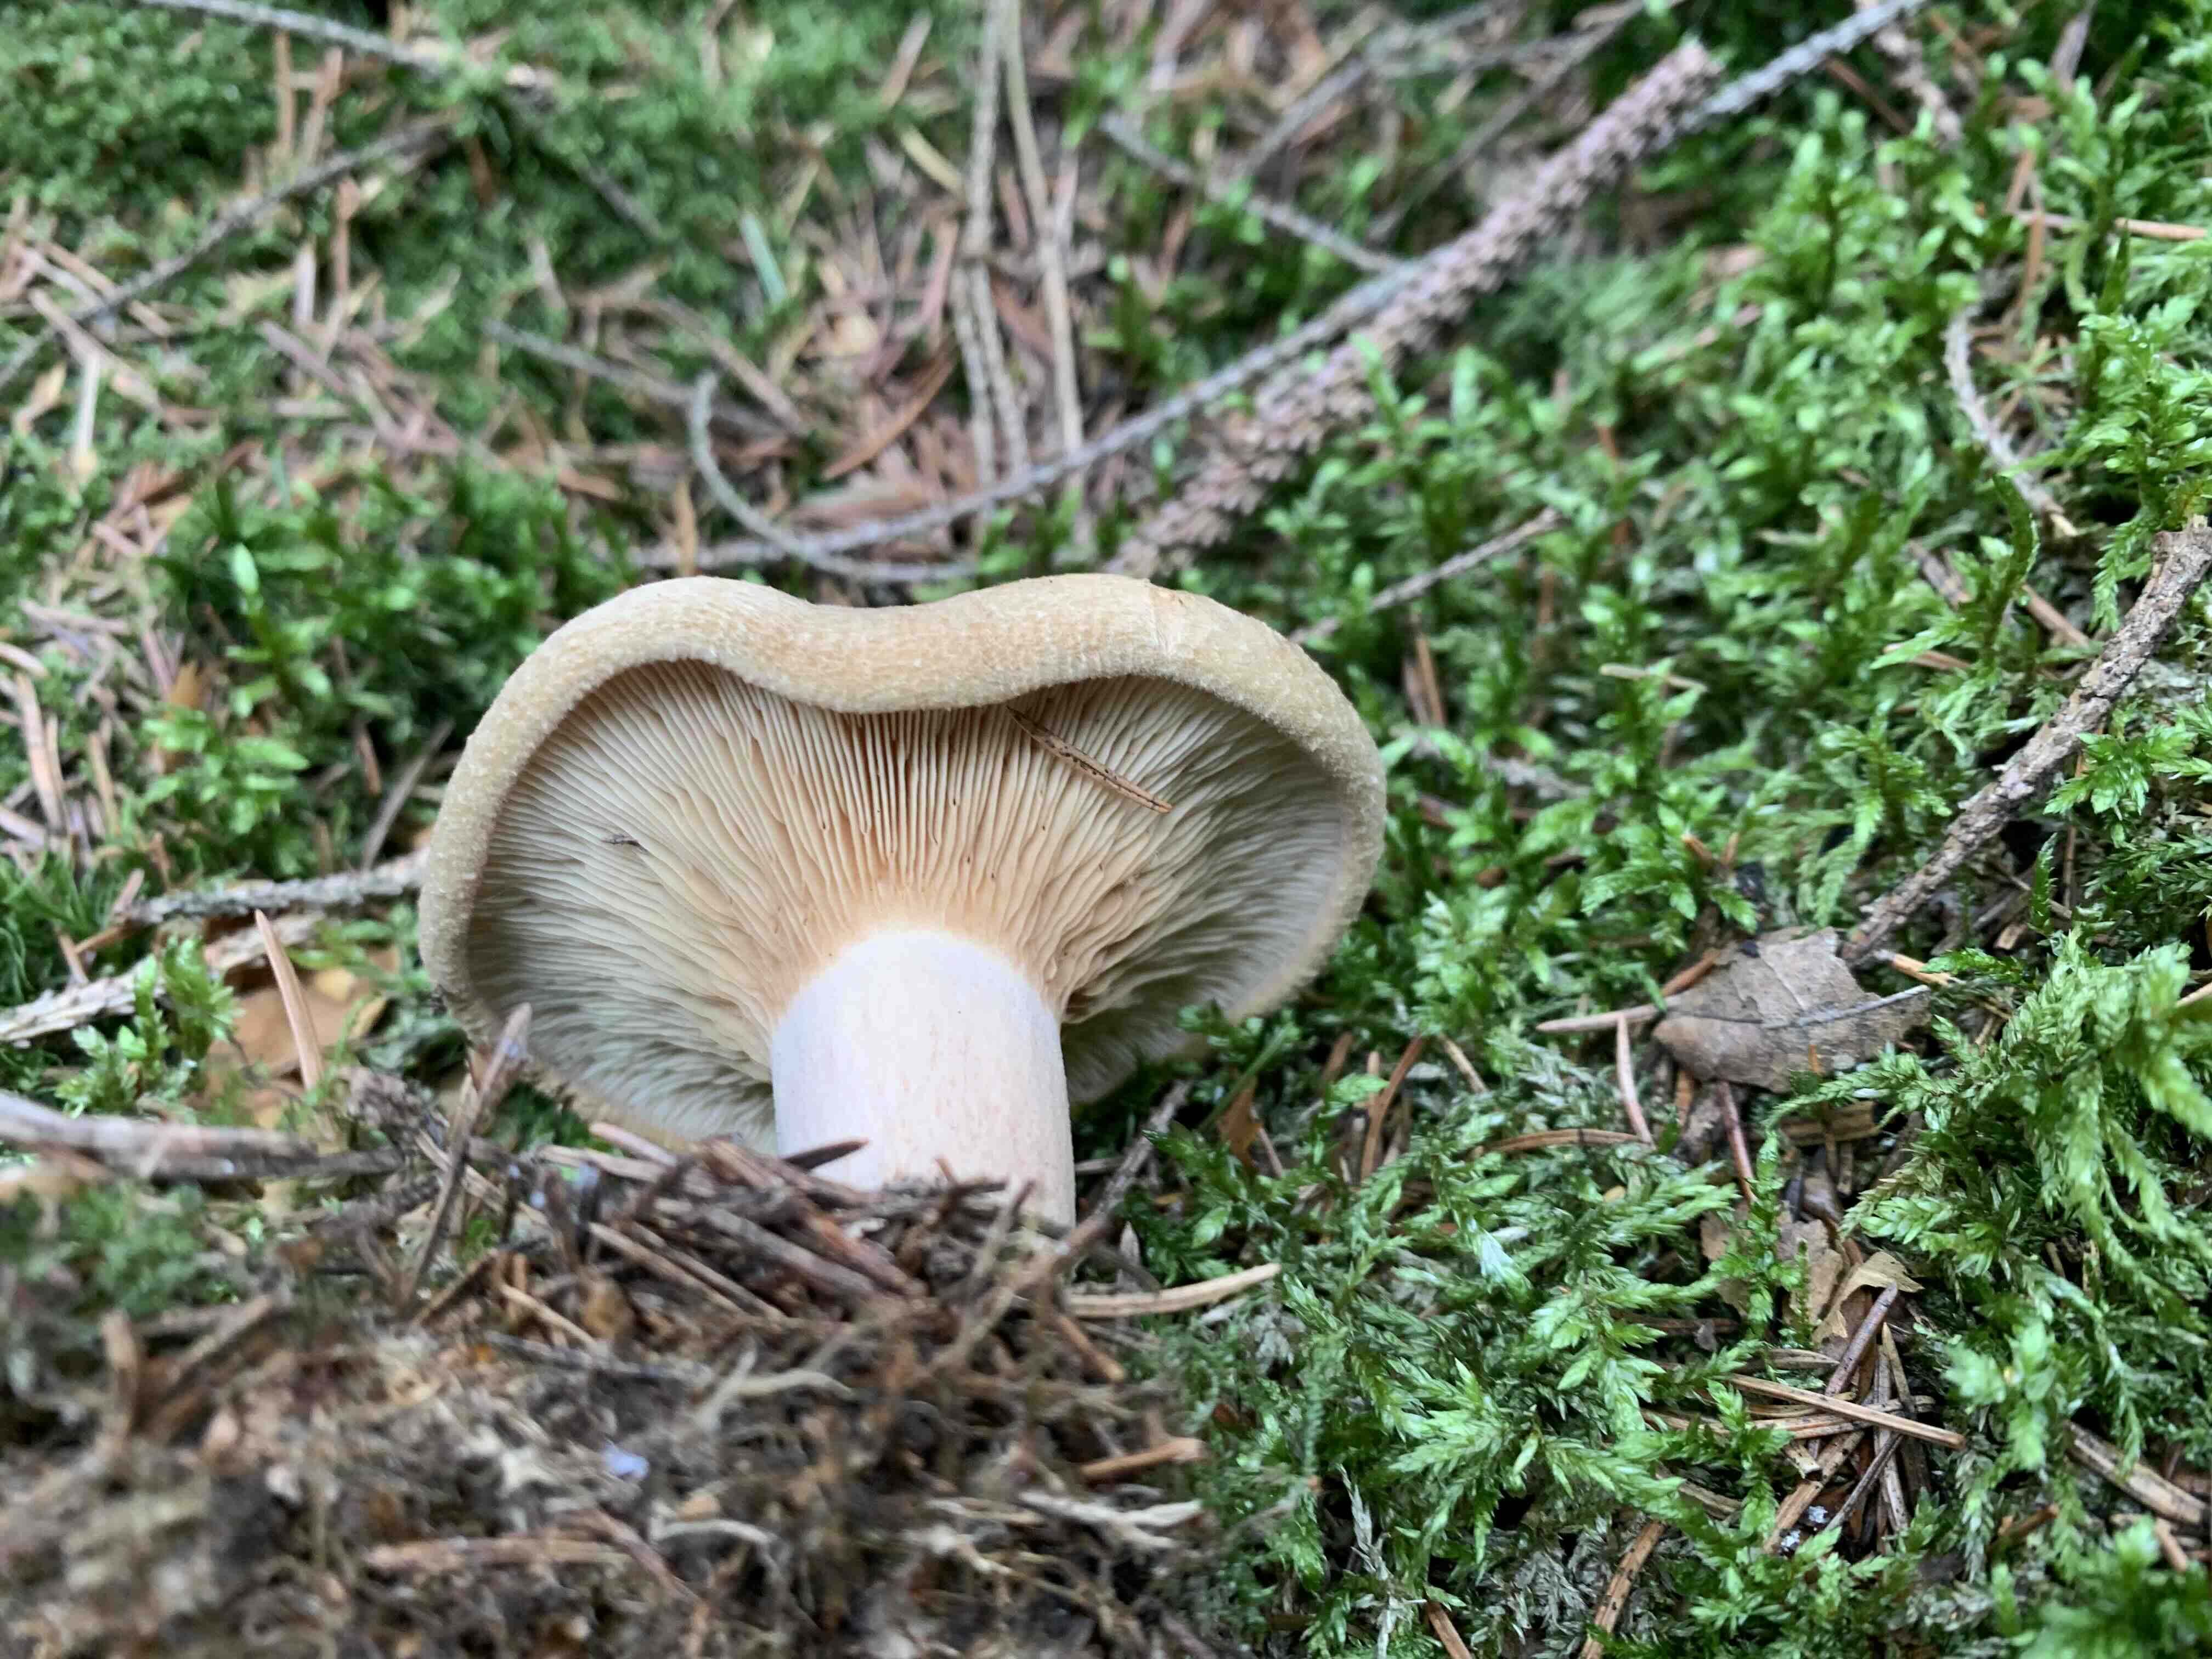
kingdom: Fungi
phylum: Basidiomycota
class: Agaricomycetes
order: Boletales
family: Paxillaceae
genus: Paxillus
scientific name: Paxillus involutus
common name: almindelig netbladhat
